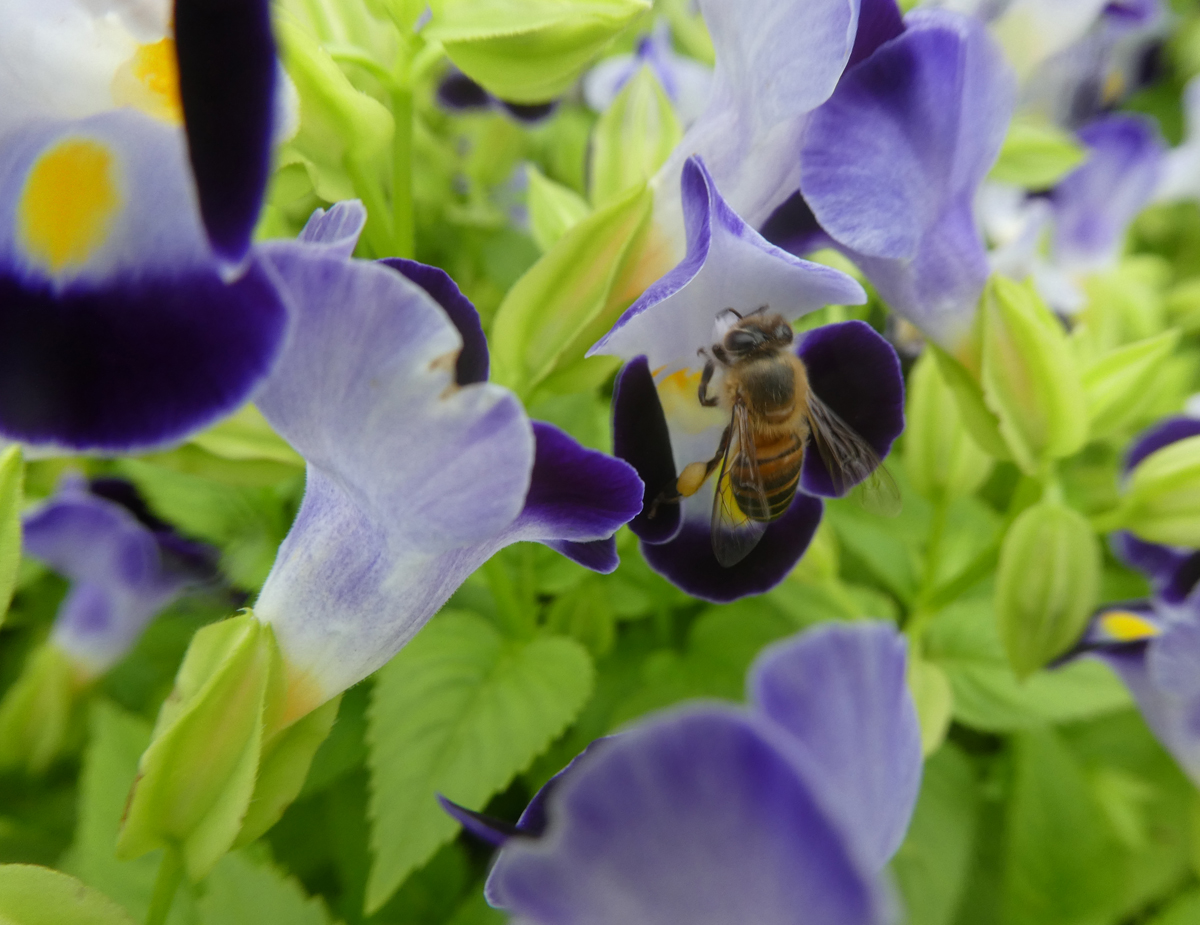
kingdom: Animalia
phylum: Arthropoda
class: Insecta
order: Hymenoptera
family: Apidae
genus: Apis
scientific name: Apis mellifera
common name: Honey bee
